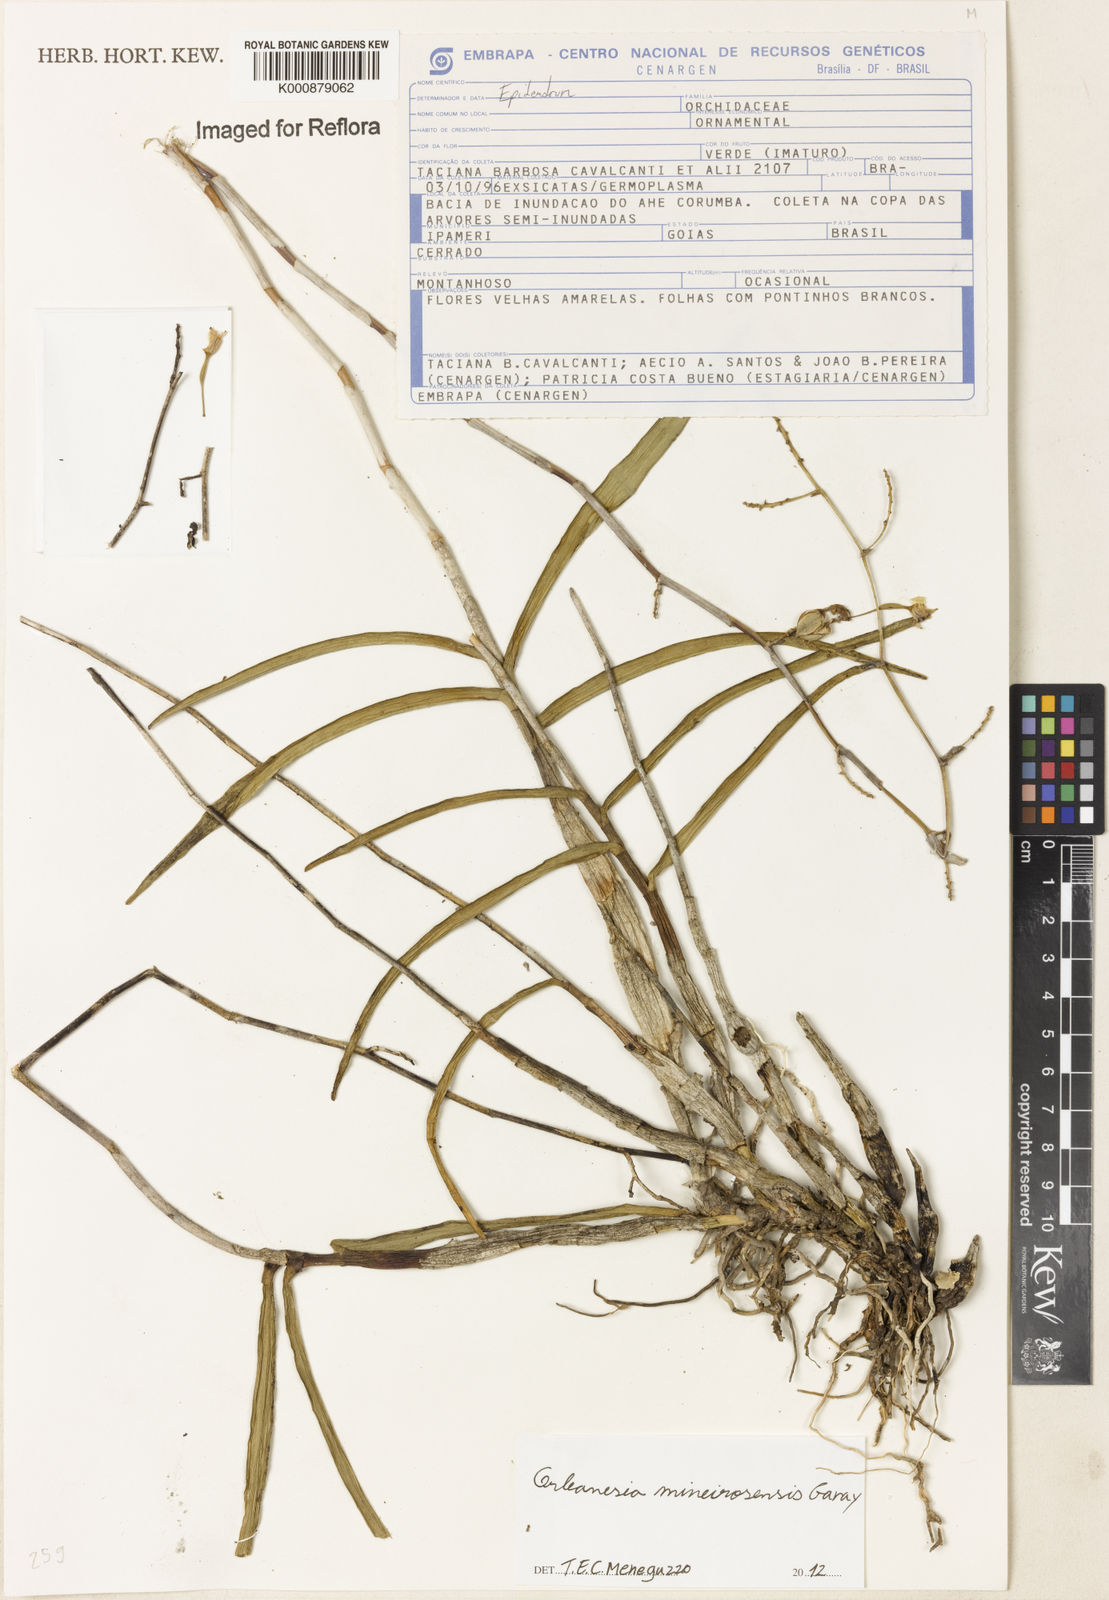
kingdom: Plantae
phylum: Tracheophyta
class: Liliopsida
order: Asparagales
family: Orchidaceae
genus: Orleanesia
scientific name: Orleanesia mineirosensis
